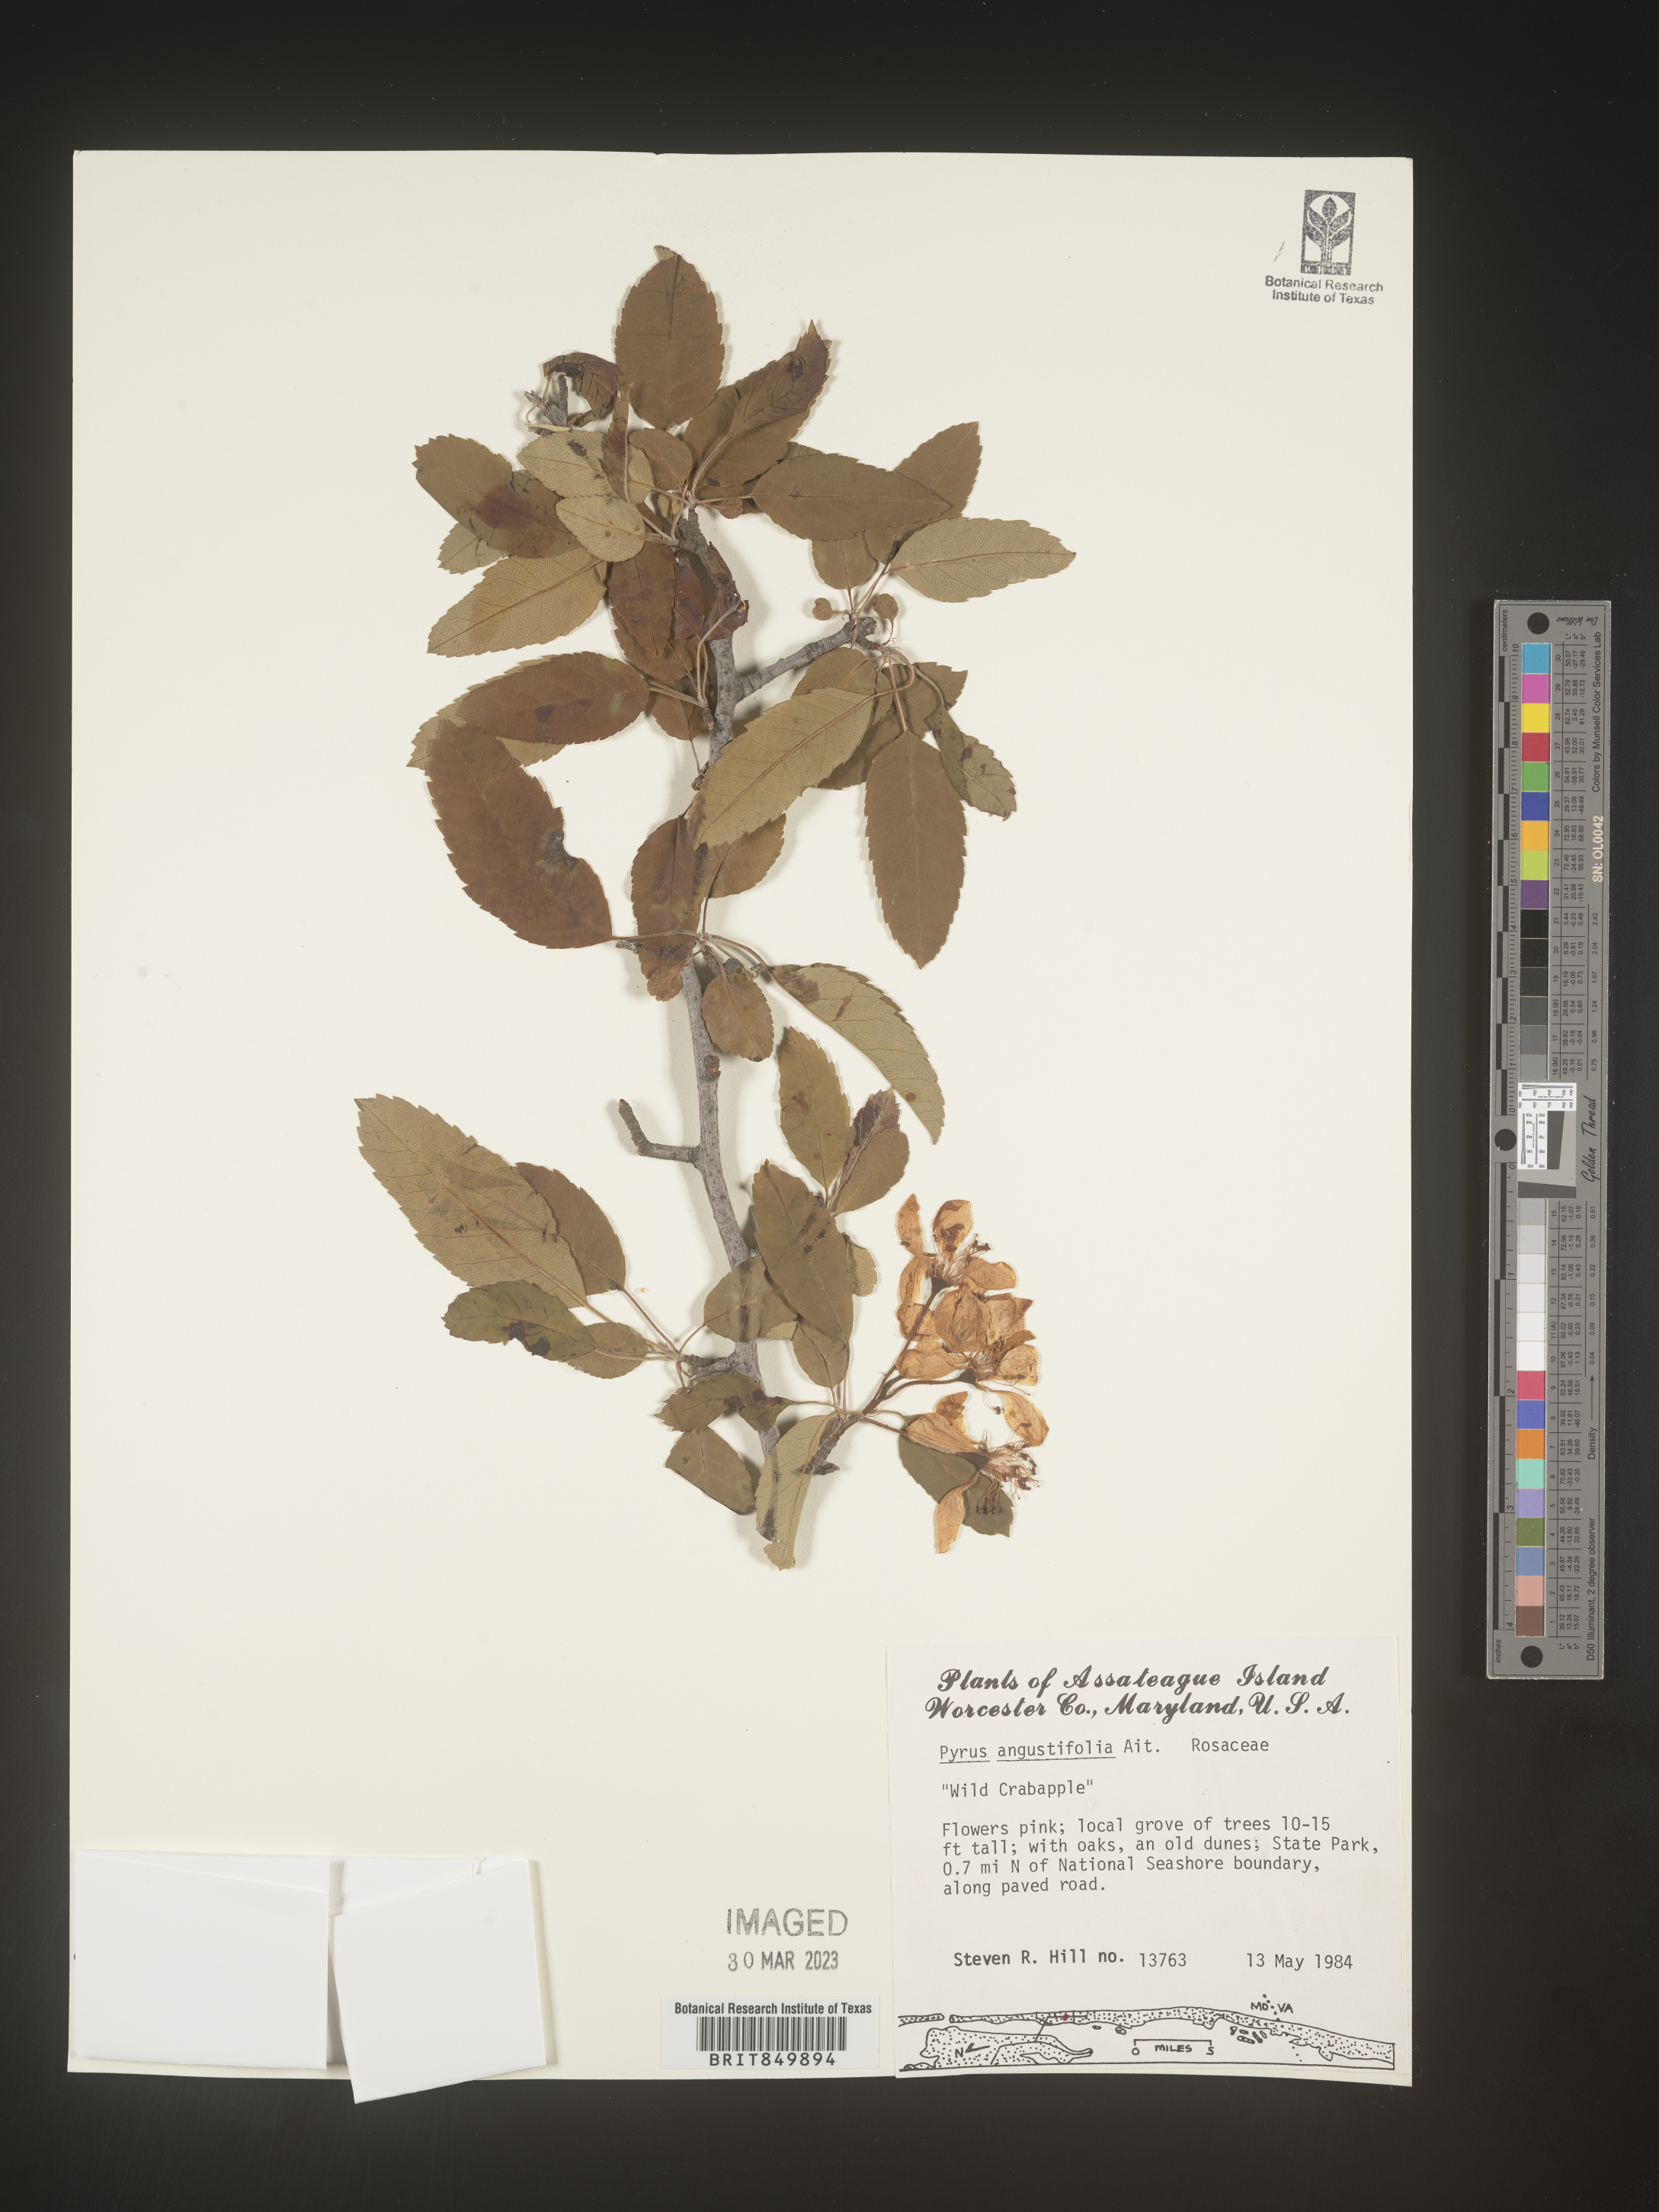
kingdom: Plantae
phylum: Tracheophyta
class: Magnoliopsida
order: Rosales
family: Rosaceae
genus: Pyrus
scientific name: Pyrus
